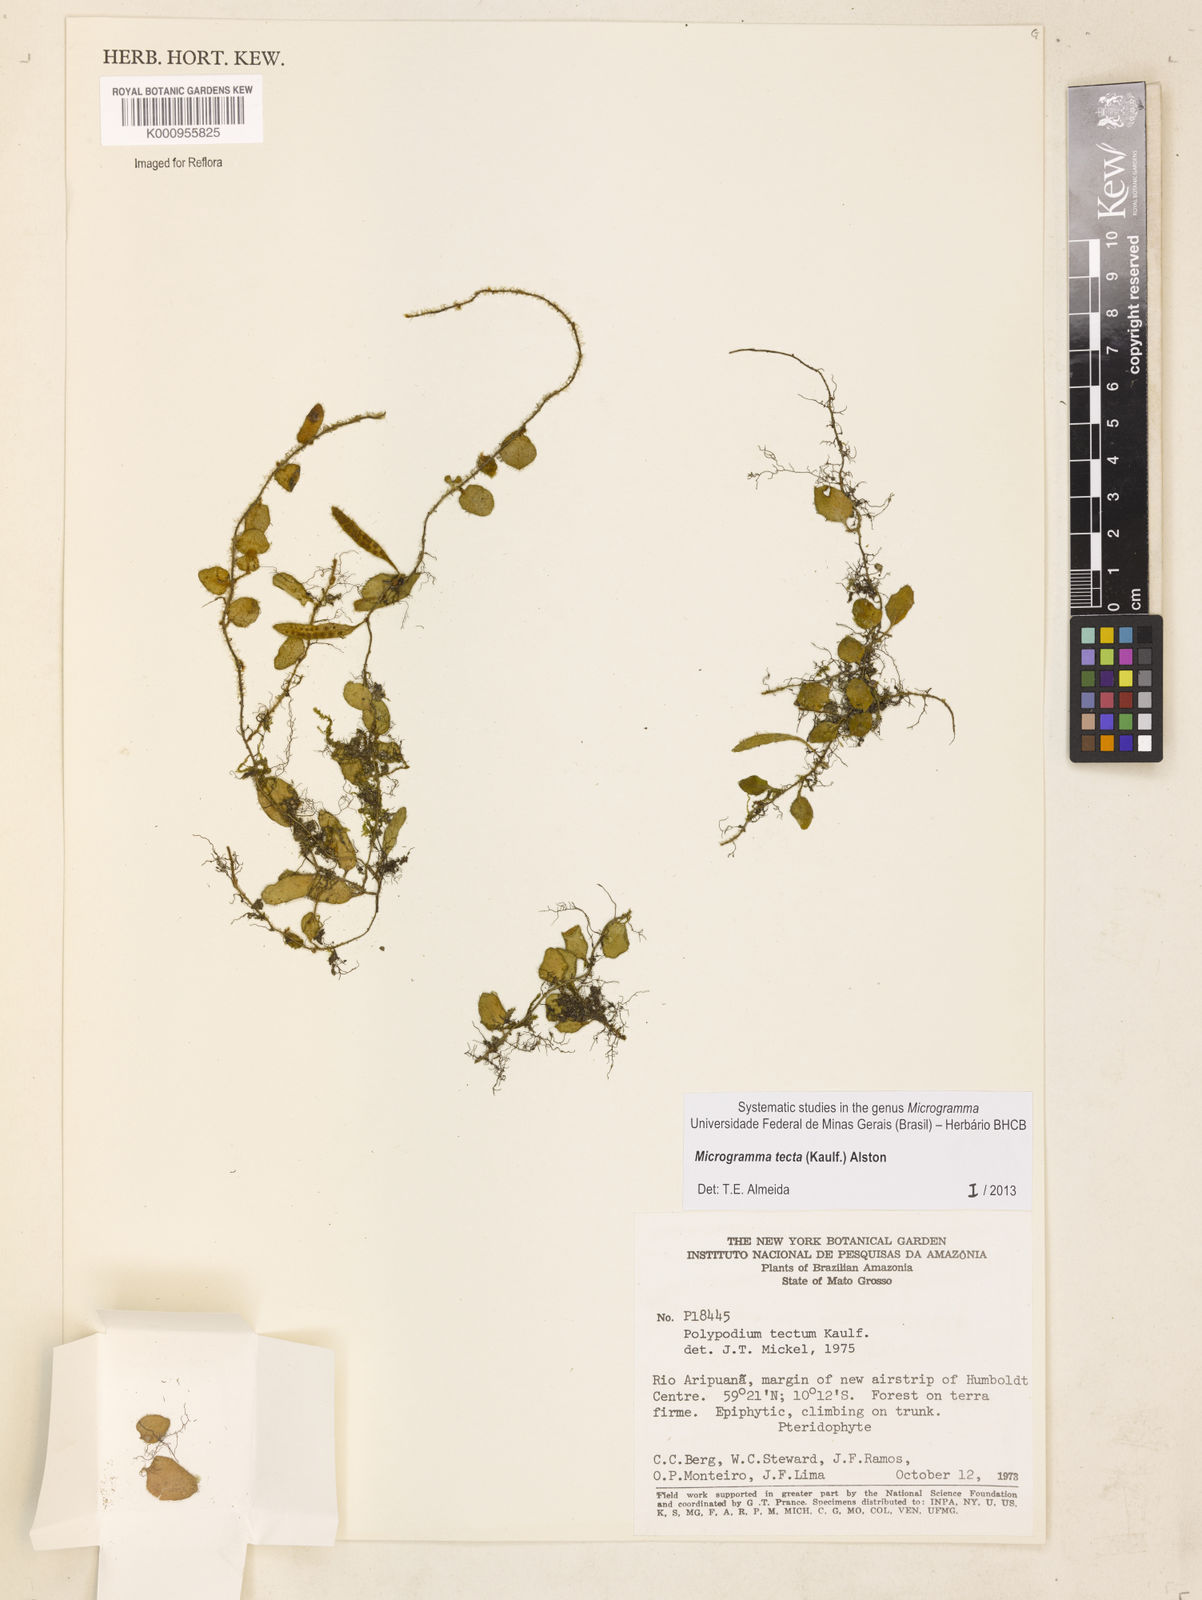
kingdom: Plantae
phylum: Tracheophyta
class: Polypodiopsida
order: Polypodiales
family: Polypodiaceae
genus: Microgramma
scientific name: Microgramma tecta
